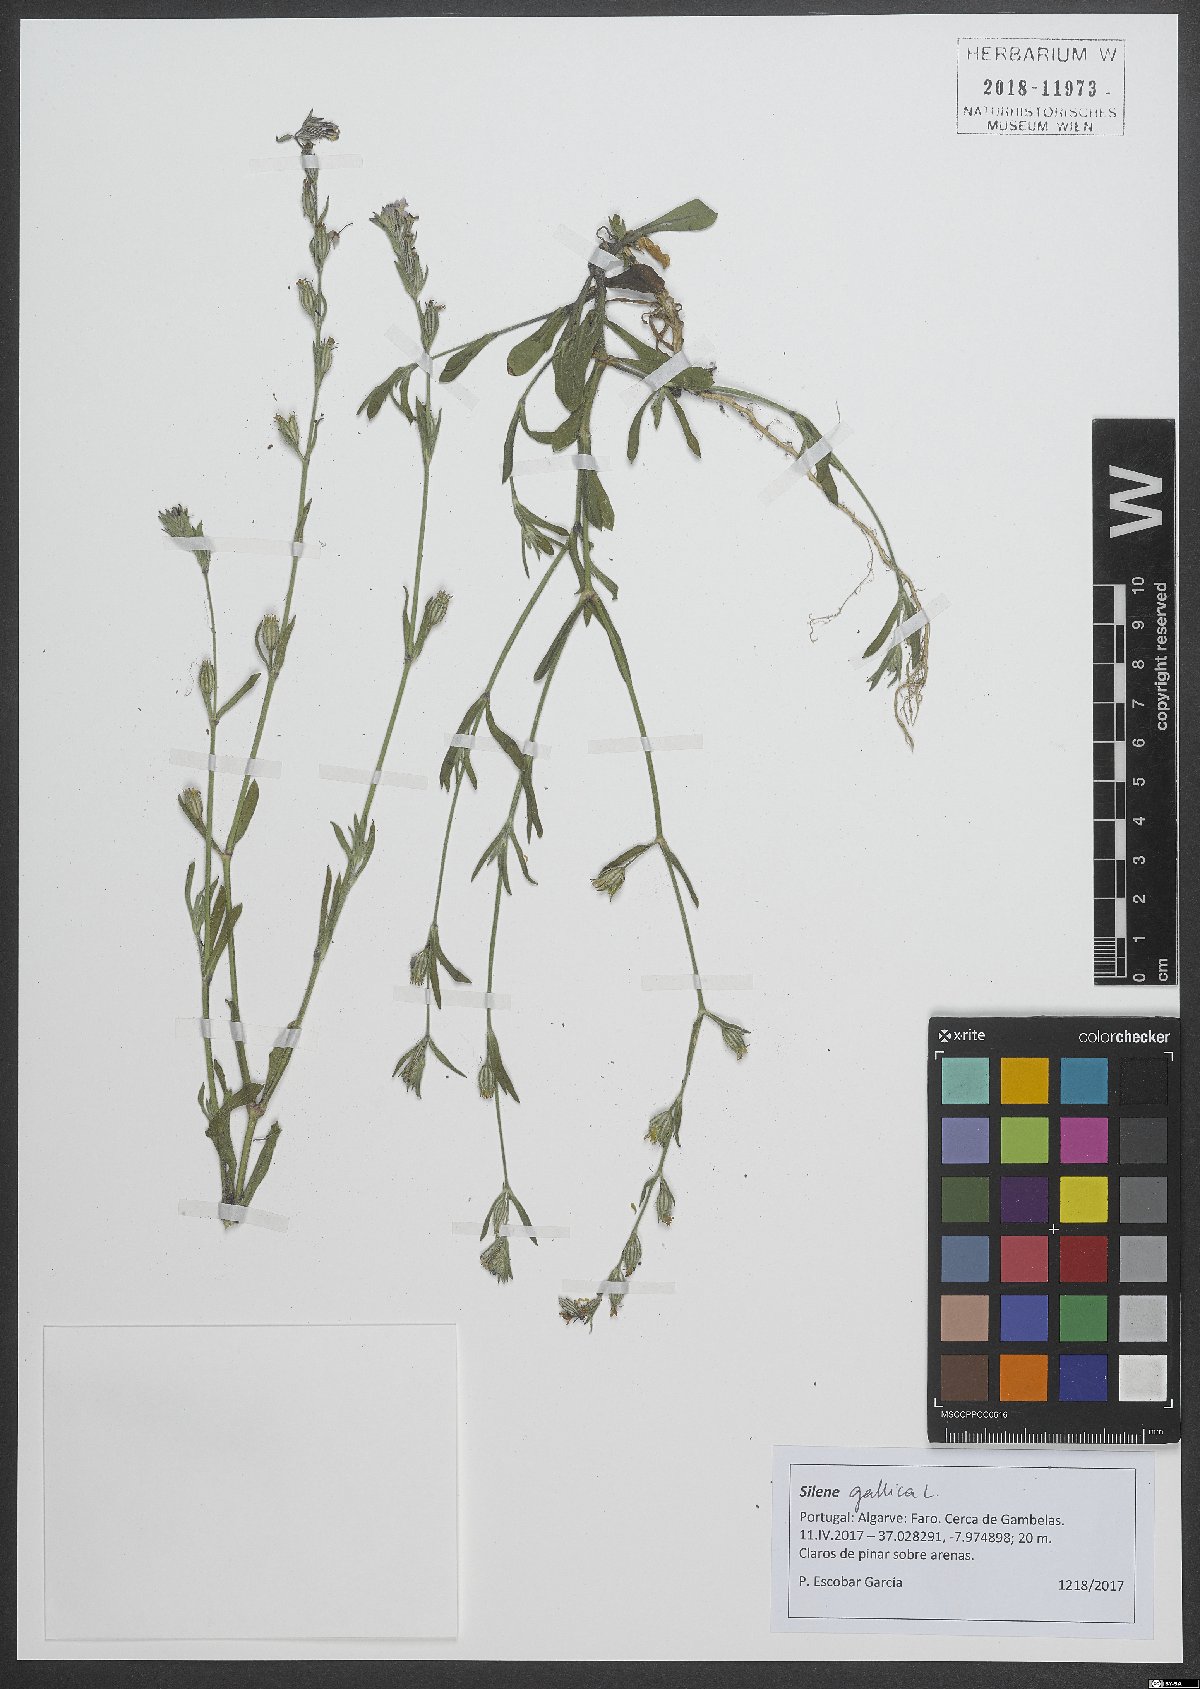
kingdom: Plantae
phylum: Tracheophyta
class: Magnoliopsida
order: Caryophyllales
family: Caryophyllaceae
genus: Silene
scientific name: Silene gallica
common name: Small-flowered catchfly
